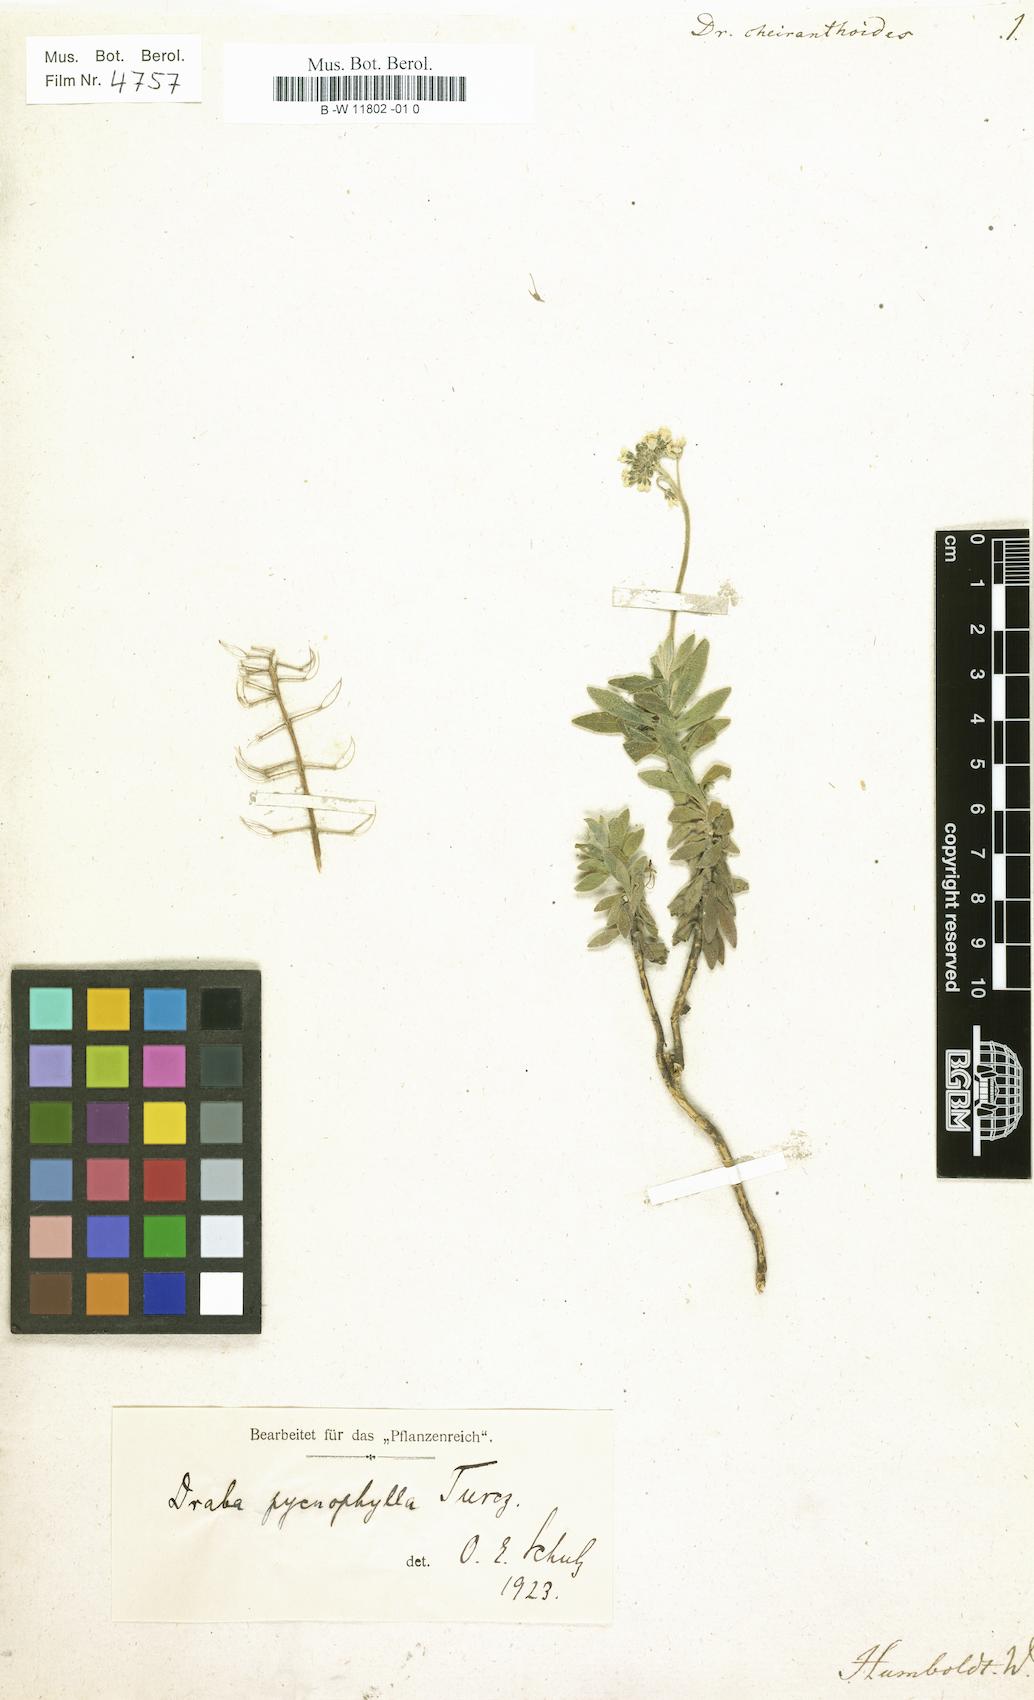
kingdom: Plantae
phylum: Tracheophyta
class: Magnoliopsida
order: Brassicales
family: Brassicaceae
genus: Draba
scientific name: Draba cheiranthoides
